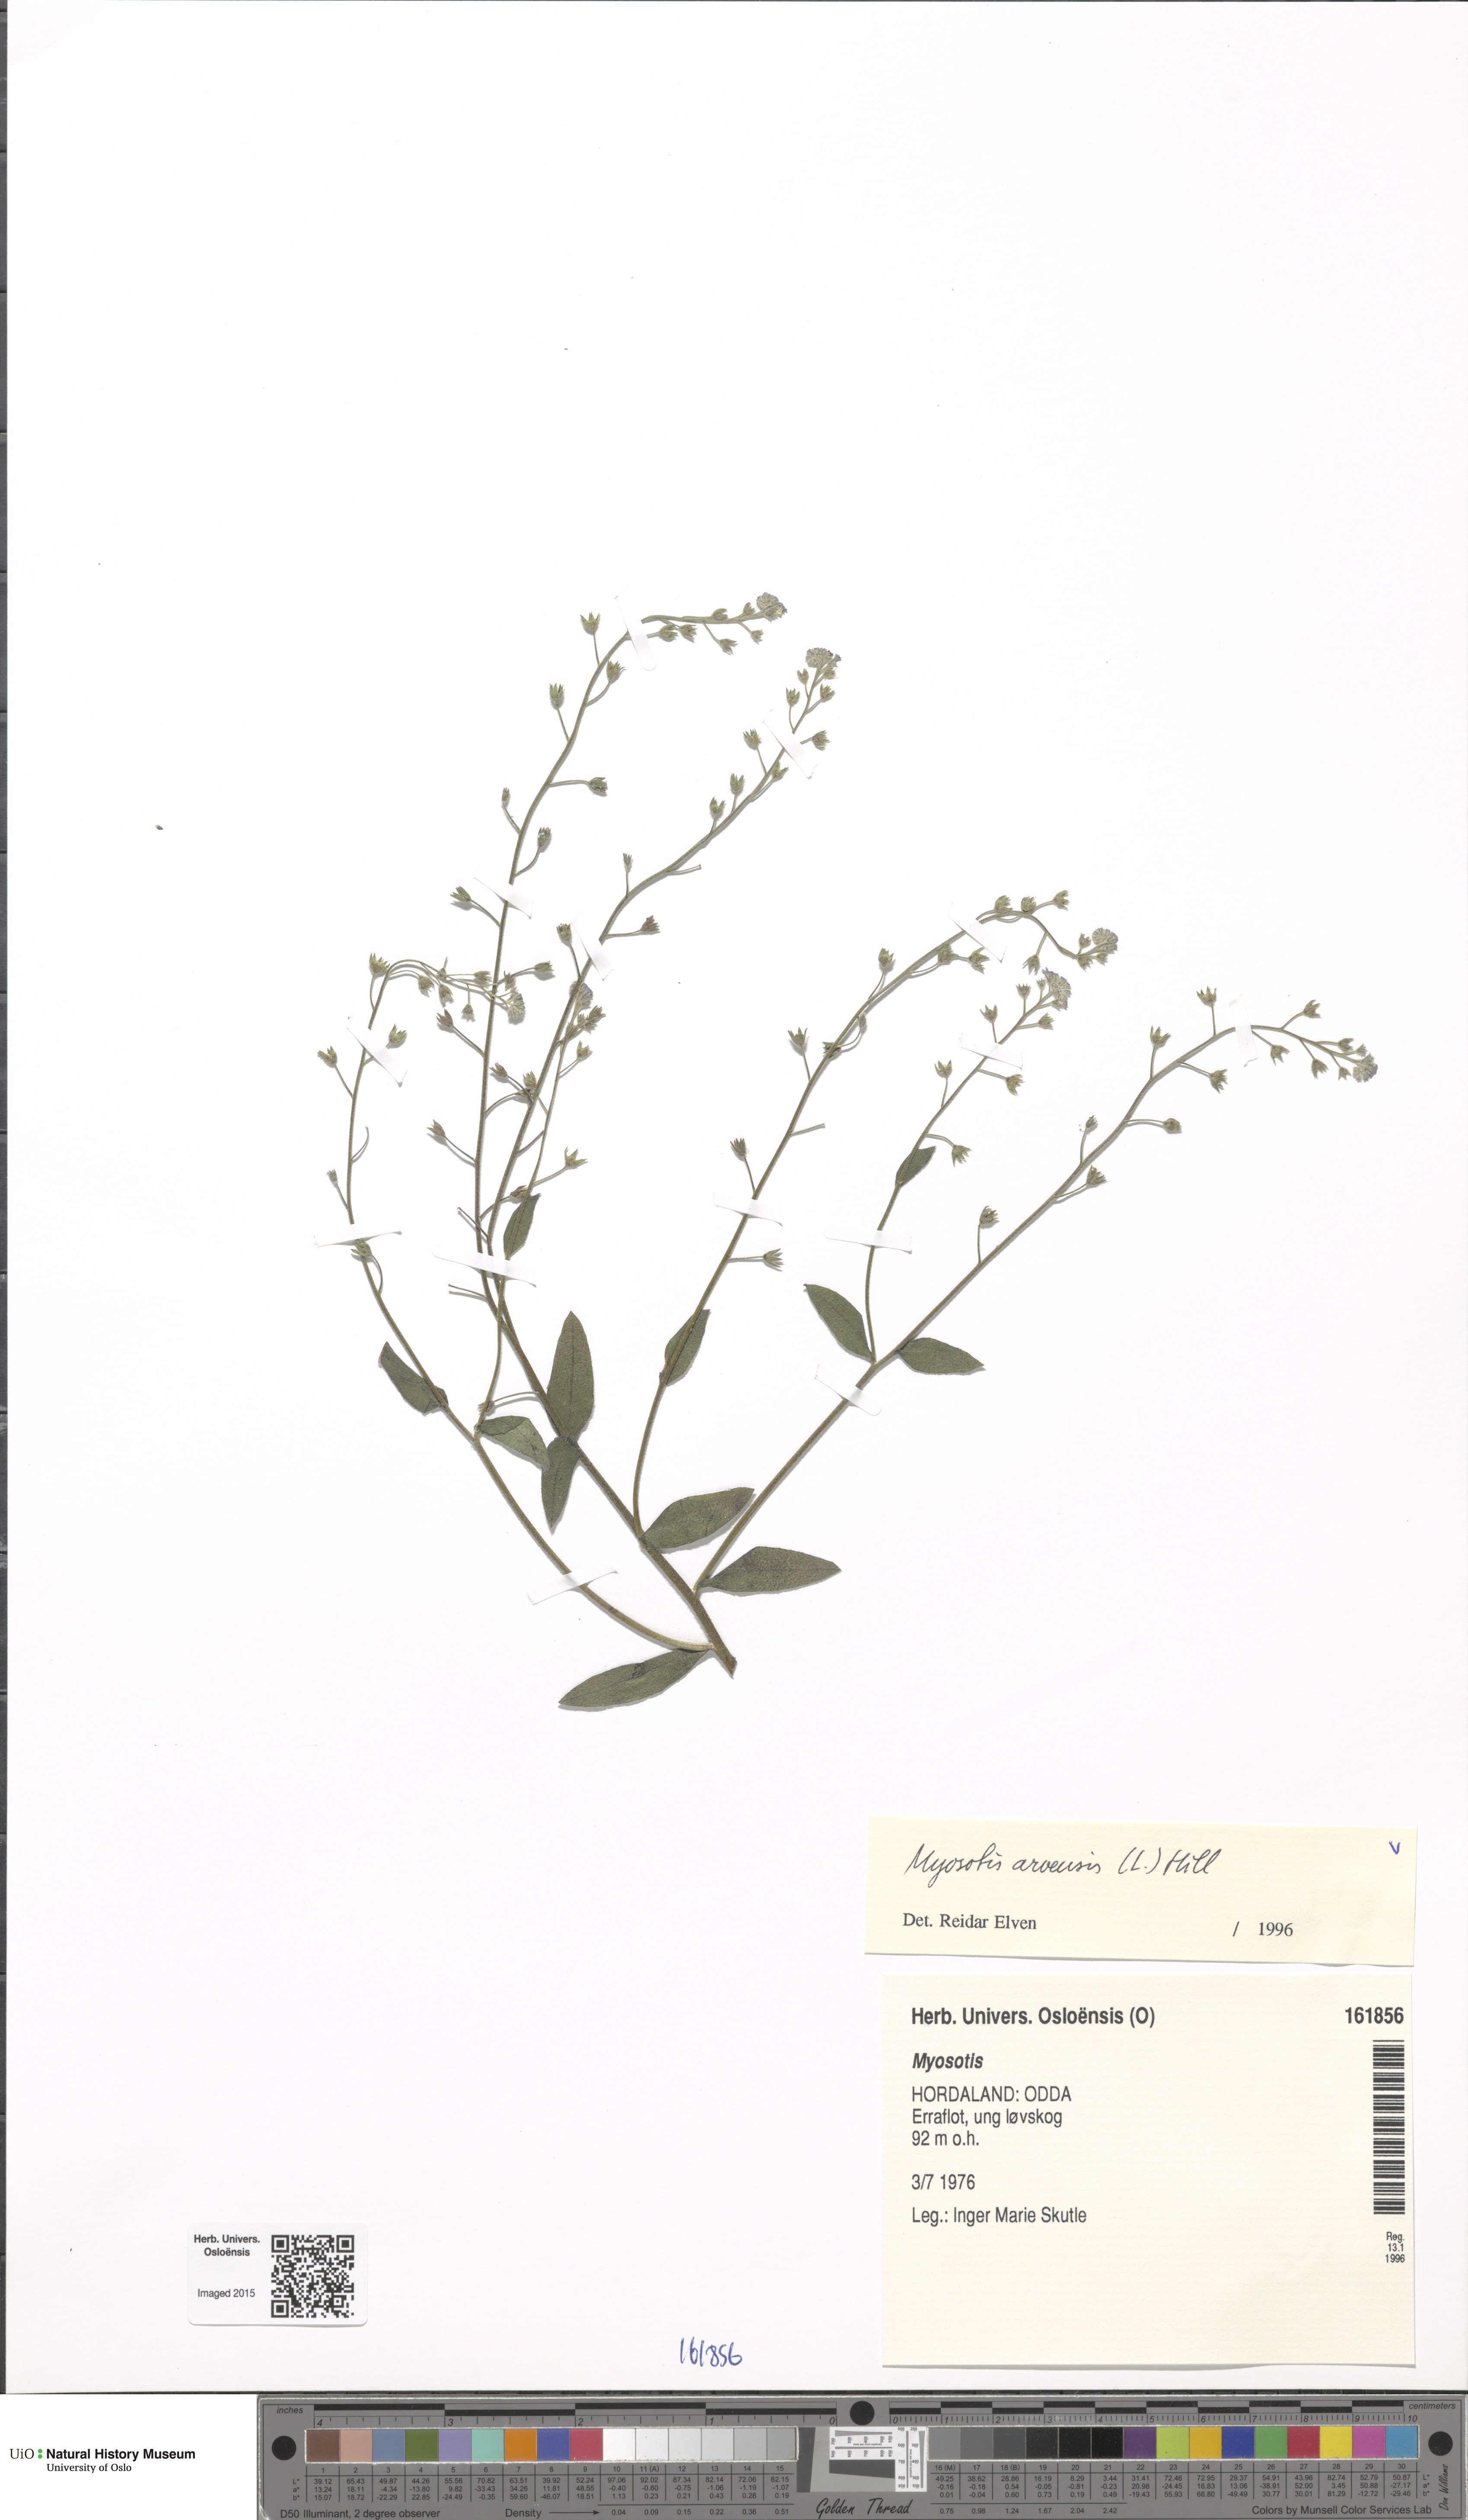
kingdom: Plantae
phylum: Tracheophyta
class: Magnoliopsida
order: Boraginales
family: Boraginaceae
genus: Myosotis
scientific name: Myosotis arvensis
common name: Field forget-me-not
